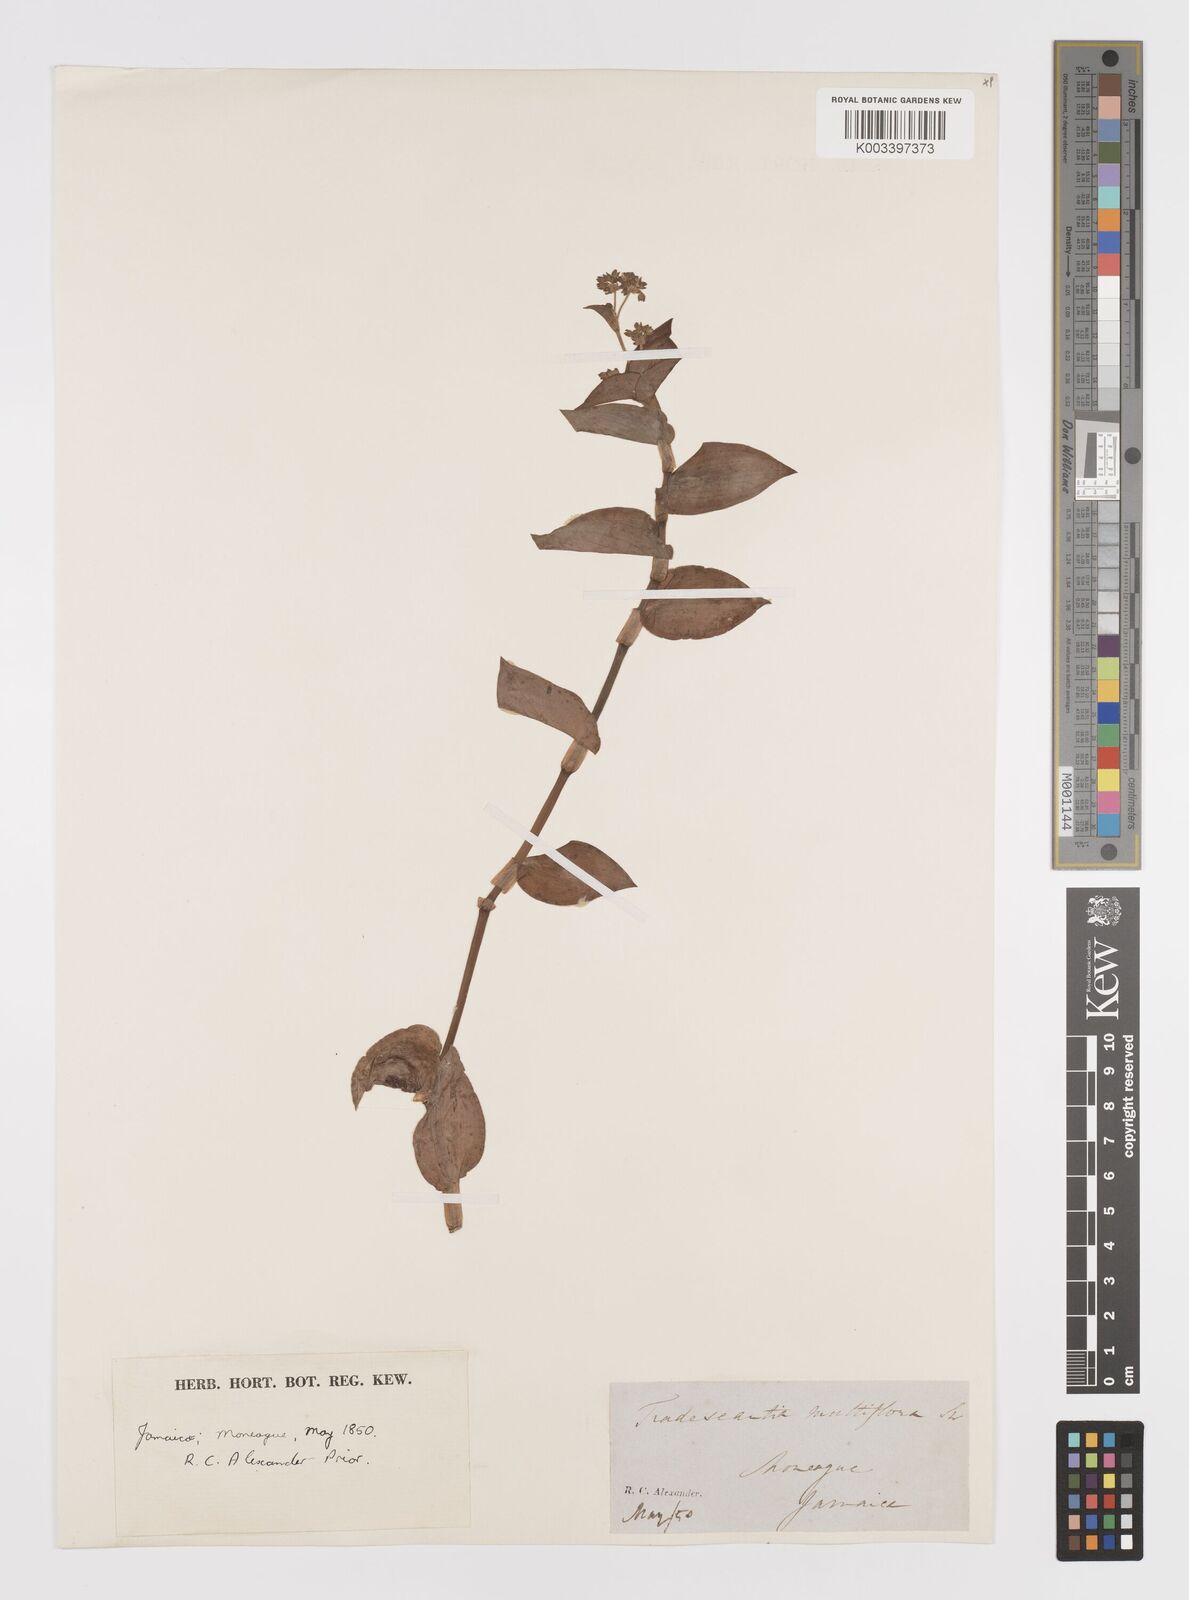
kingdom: Plantae
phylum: Tracheophyta
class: Liliopsida
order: Commelinales
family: Commelinaceae
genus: Callisia
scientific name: Callisia procumbens
